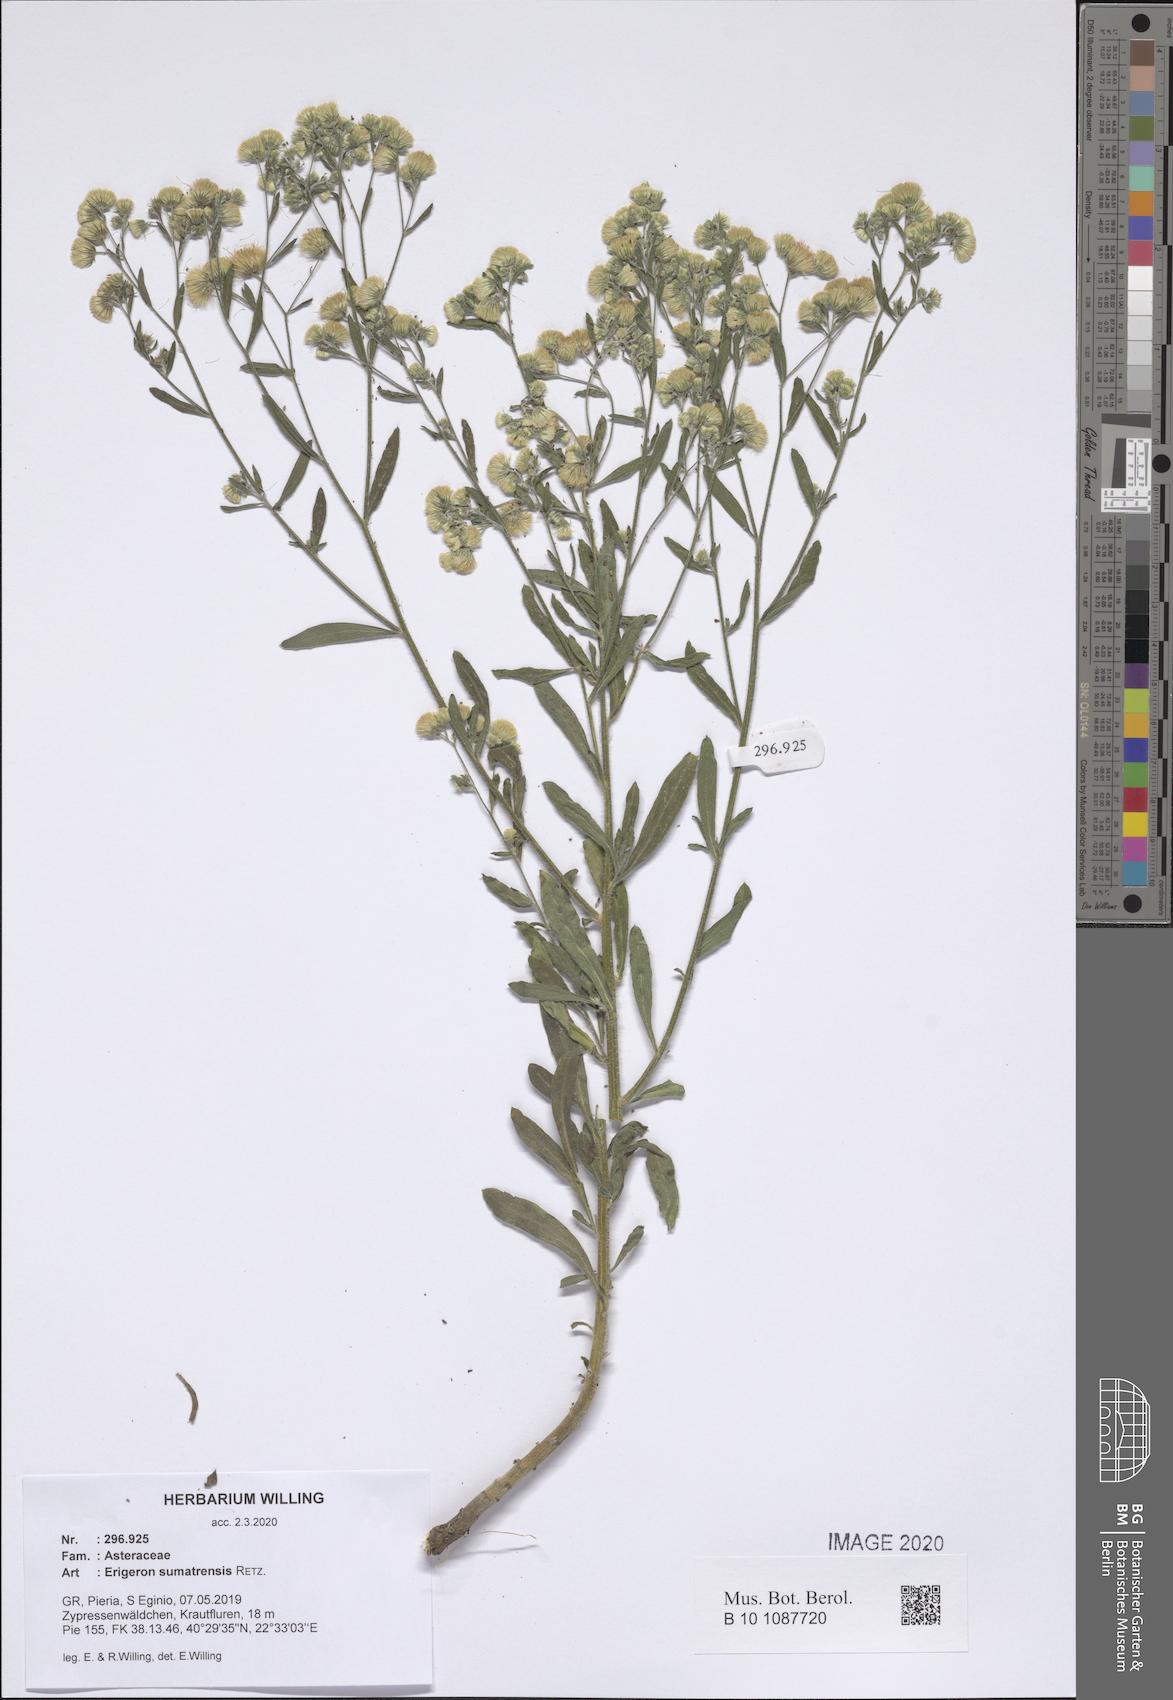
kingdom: Plantae
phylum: Tracheophyta
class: Magnoliopsida
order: Asterales
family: Asteraceae
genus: Erigeron
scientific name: Erigeron sumatrensis
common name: Daisy
